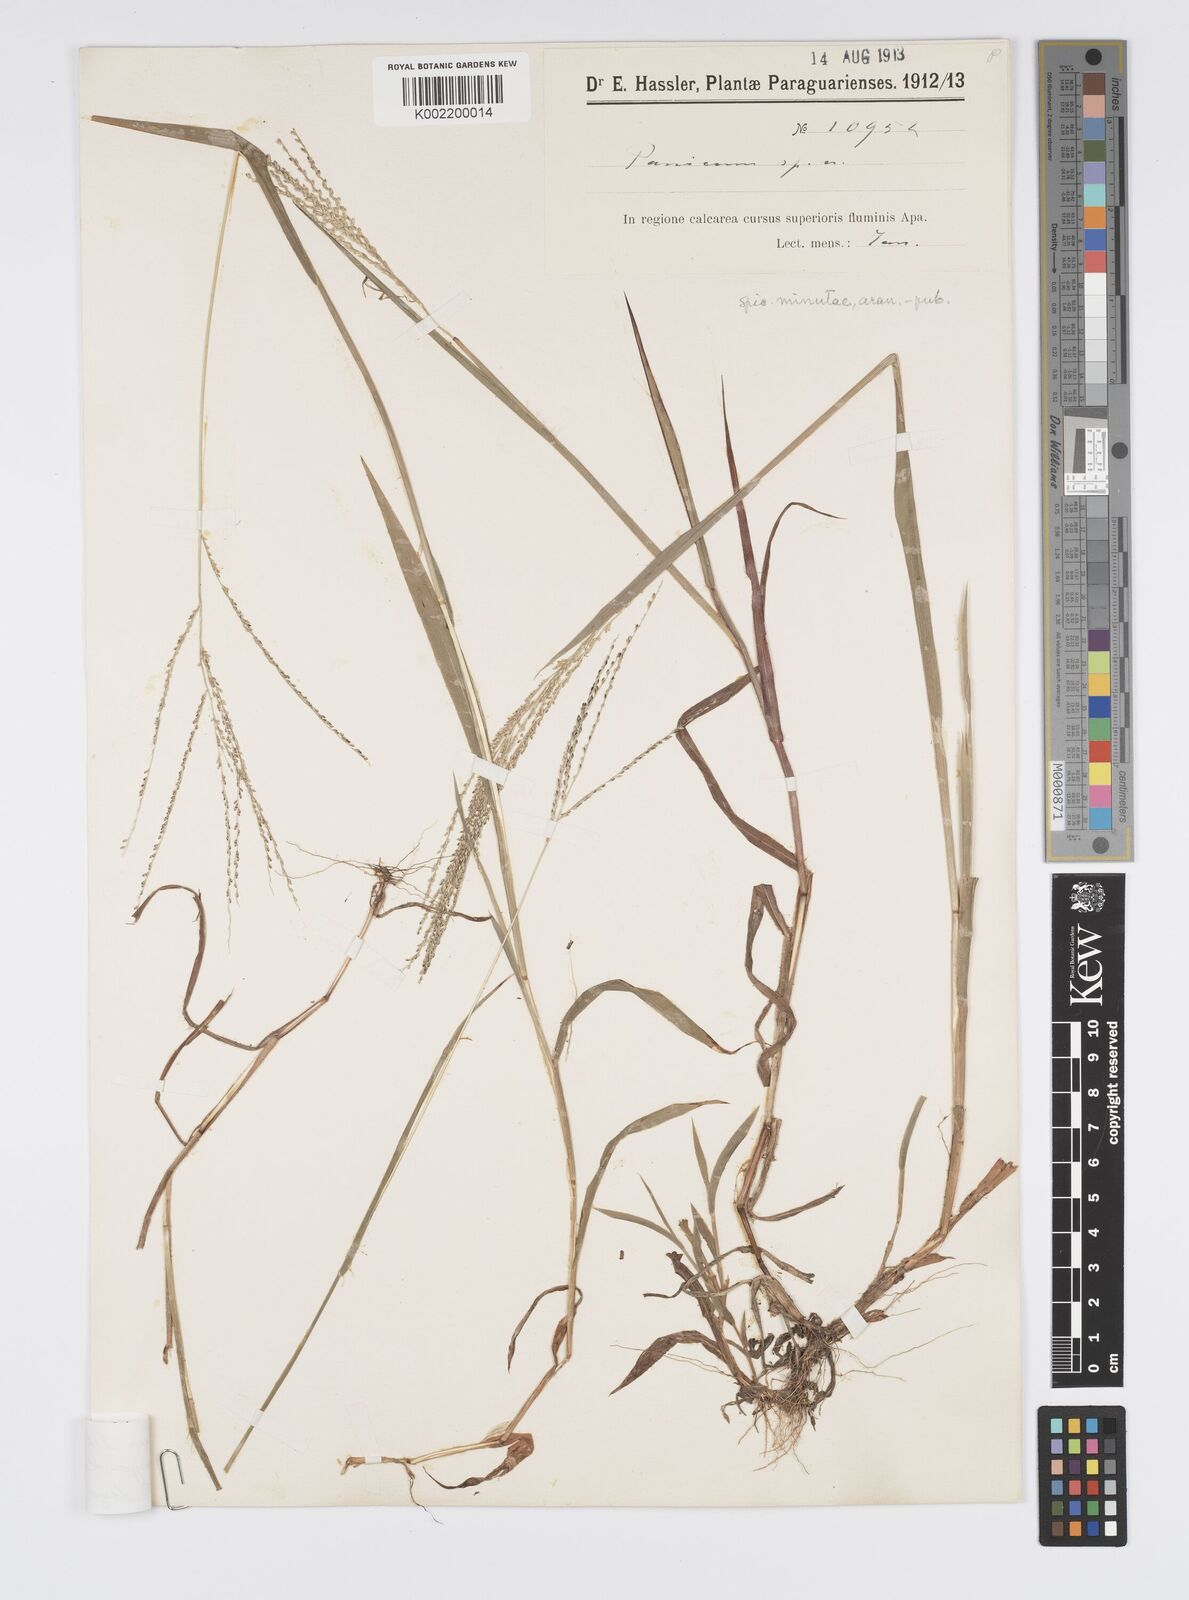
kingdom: Plantae
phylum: Tracheophyta
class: Liliopsida
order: Poales
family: Poaceae
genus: Digitaria
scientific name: Digitaria lehmanniana
